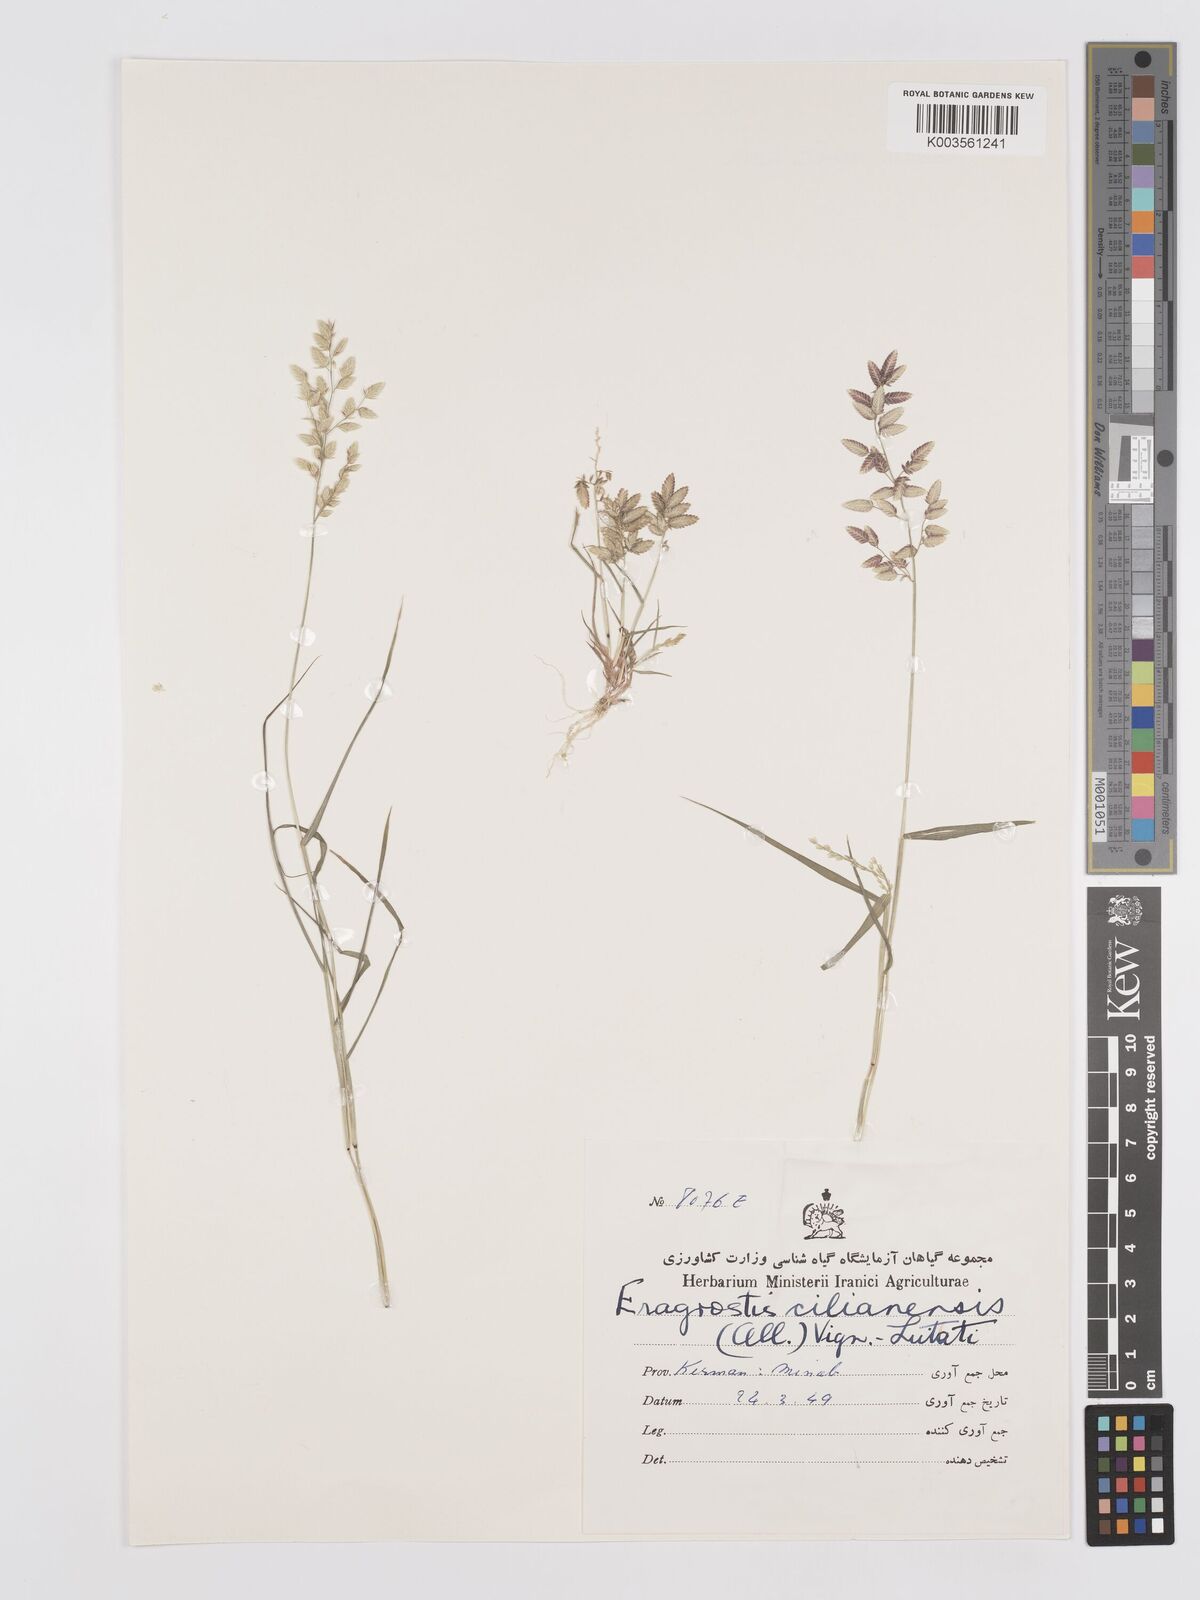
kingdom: Plantae
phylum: Tracheophyta
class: Liliopsida
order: Poales
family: Poaceae
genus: Eragrostis
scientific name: Eragrostis cilianensis
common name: Stinkgrass
